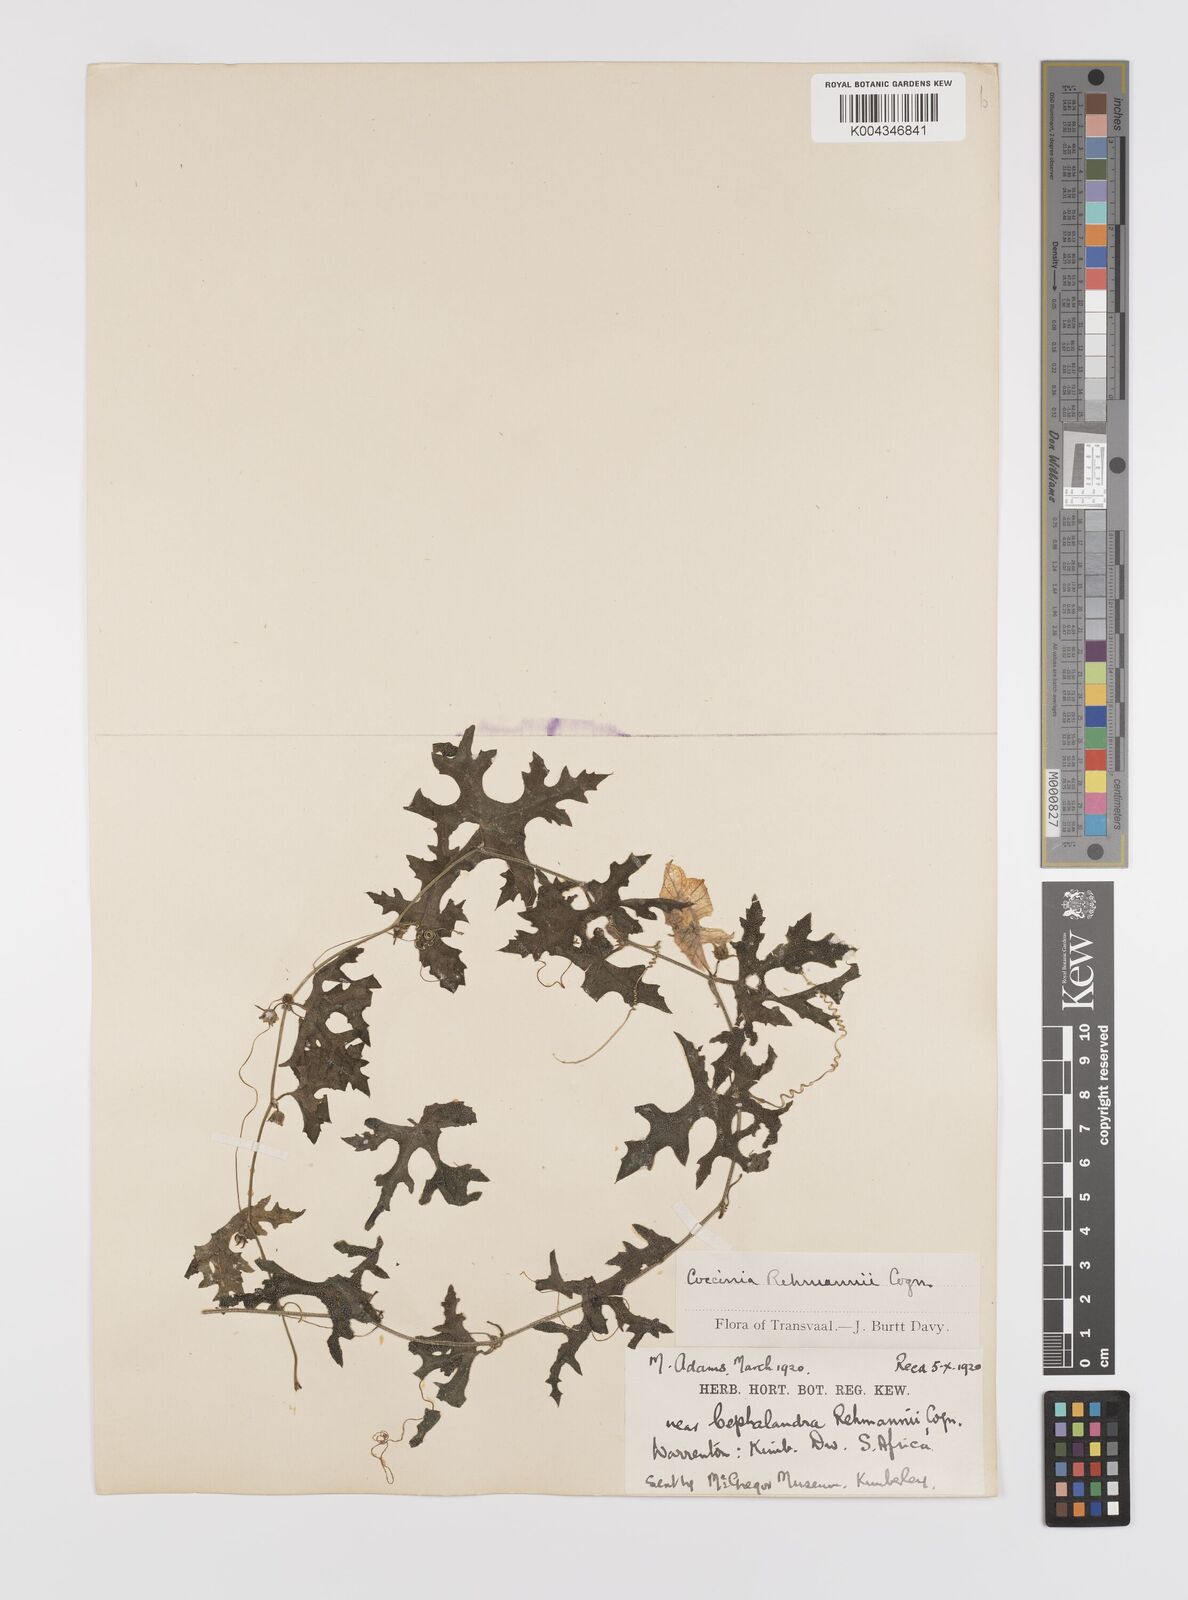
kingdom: Plantae
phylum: Tracheophyta
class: Magnoliopsida
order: Cucurbitales
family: Cucurbitaceae
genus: Coccinia
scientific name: Coccinia rehmannii
